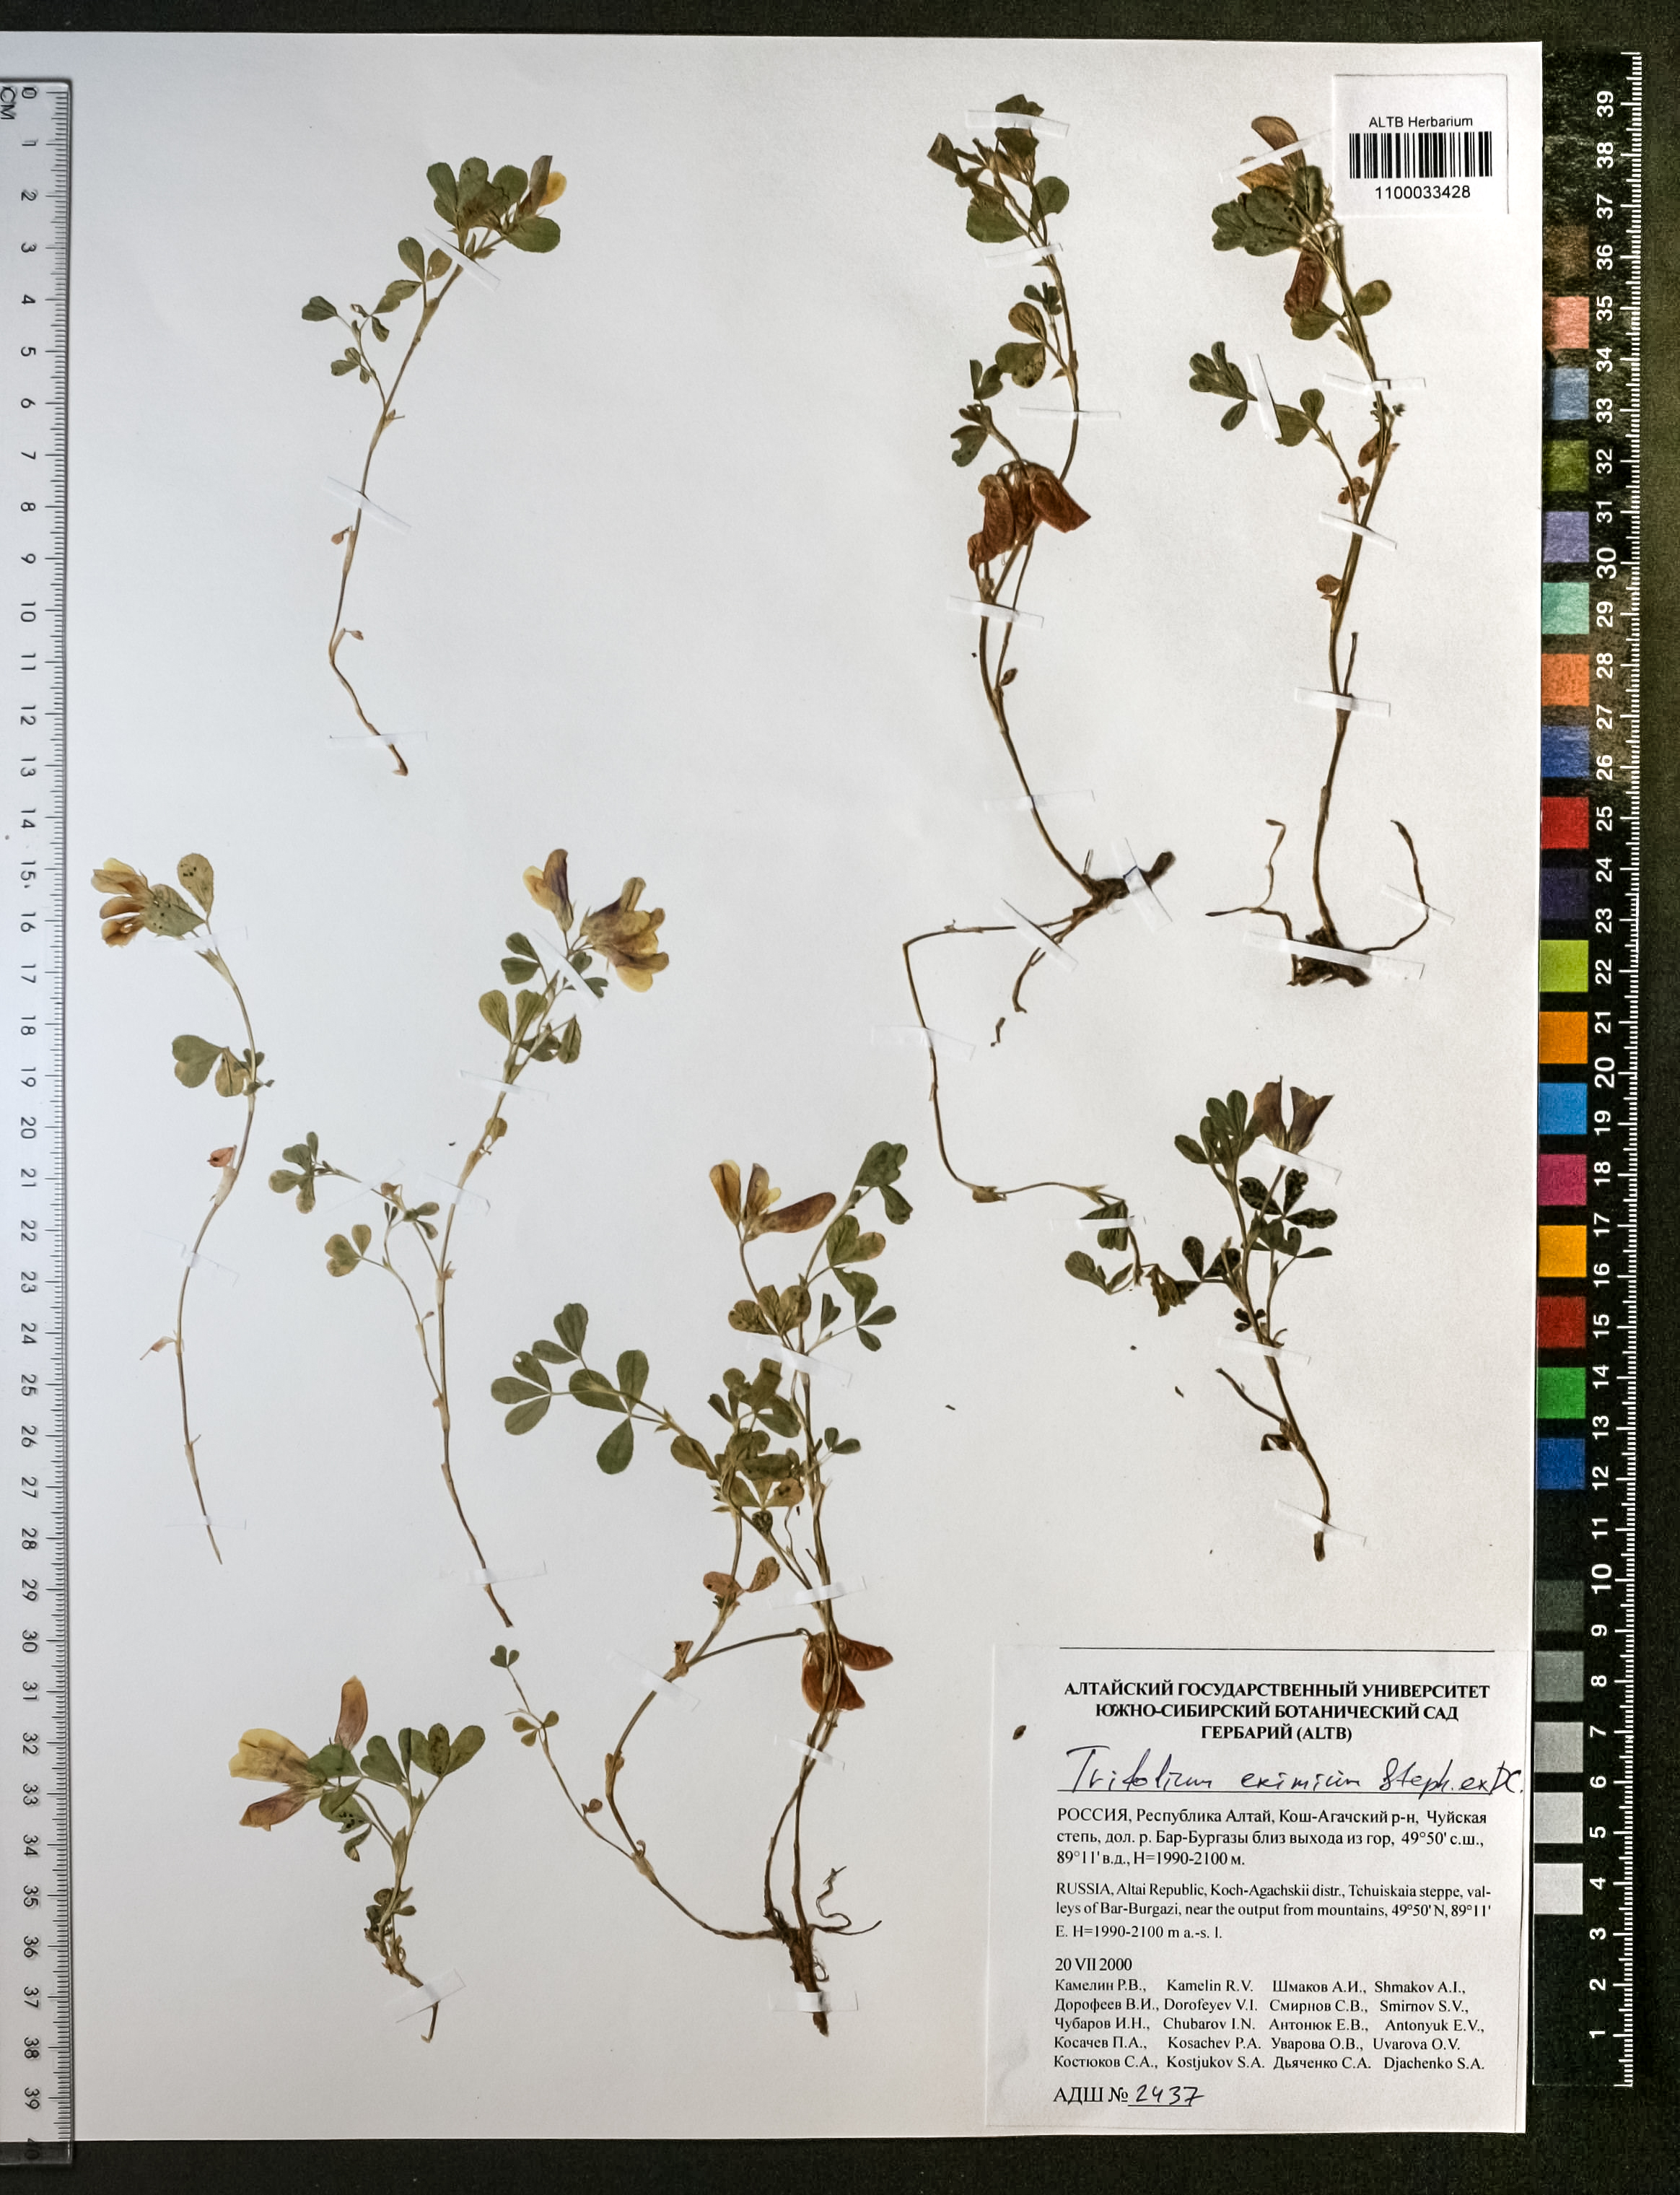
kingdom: Plantae
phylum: Tracheophyta
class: Magnoliopsida
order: Fabales
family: Fabaceae
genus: Trifolium
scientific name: Trifolium eximium
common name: Excellent clover
